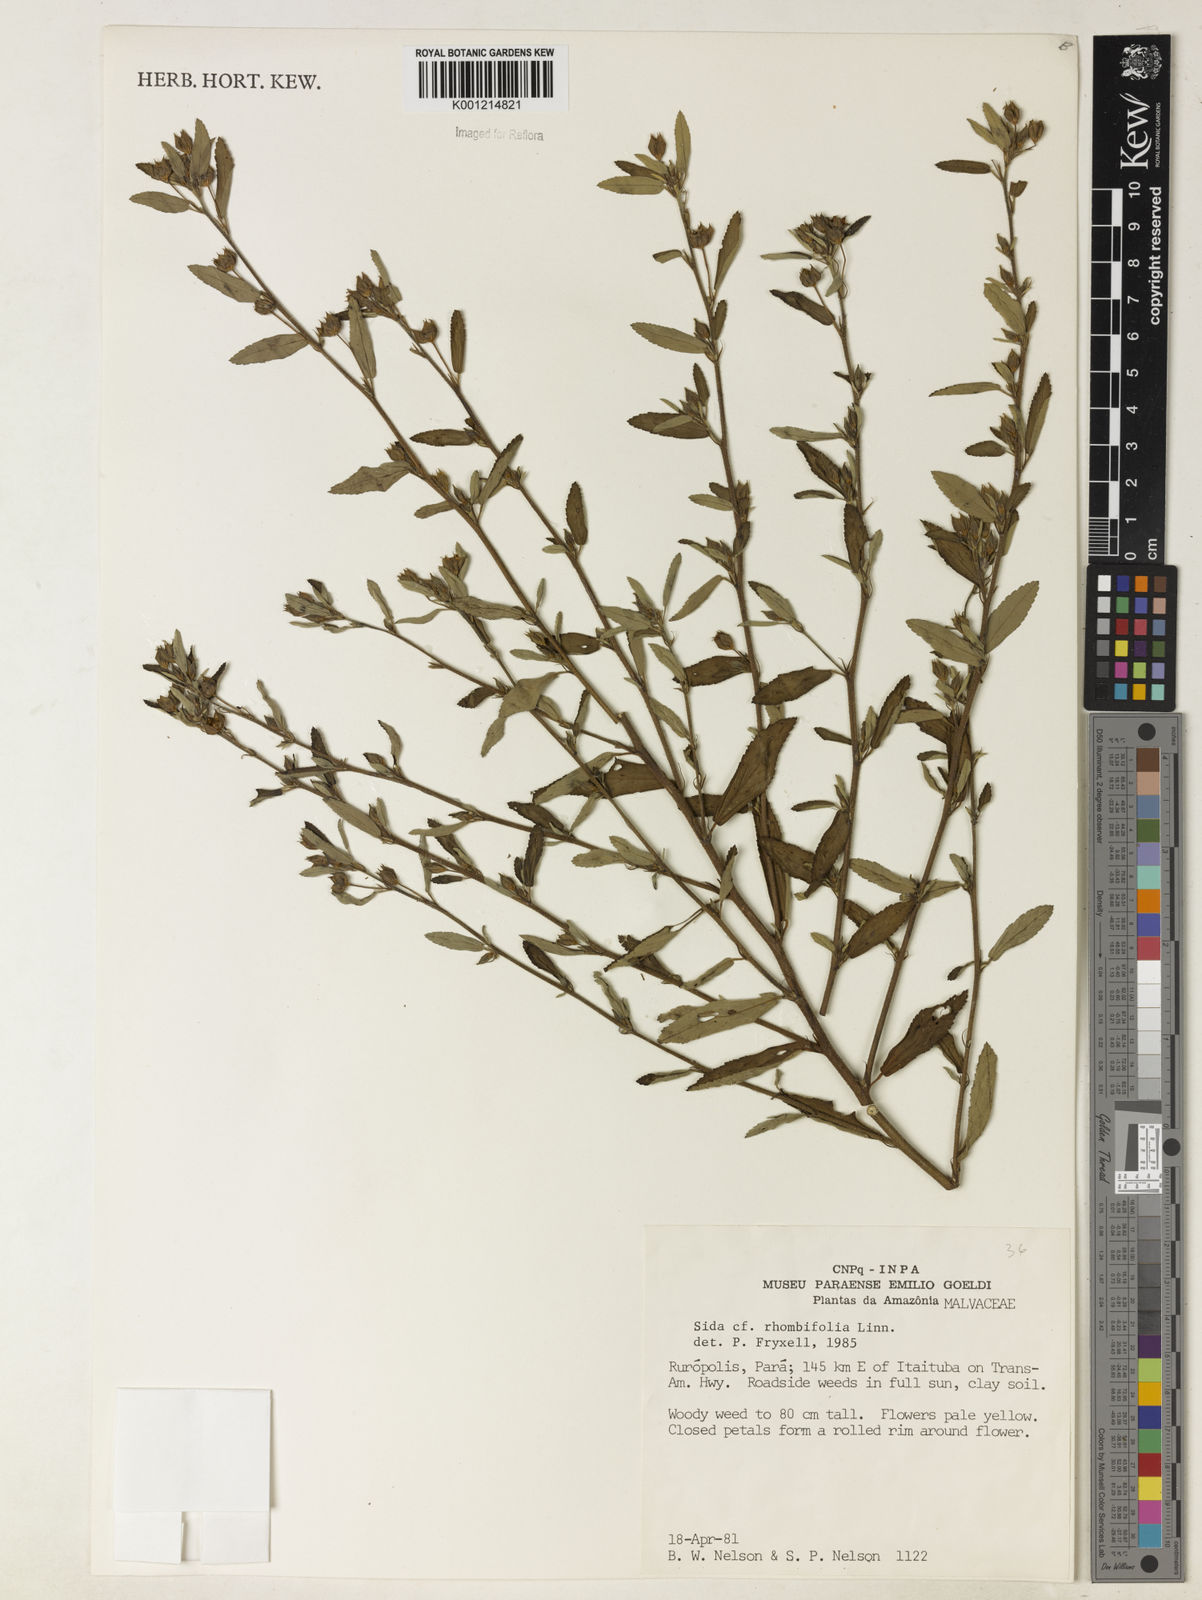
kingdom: Plantae
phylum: Tracheophyta
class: Magnoliopsida
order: Malvales
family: Malvaceae
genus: Sida
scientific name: Sida rhombifolia
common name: Queensland-hemp
